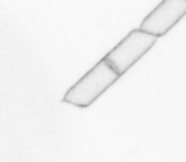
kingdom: Chromista
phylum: Ochrophyta
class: Bacillariophyceae
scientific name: Bacillariophyceae
